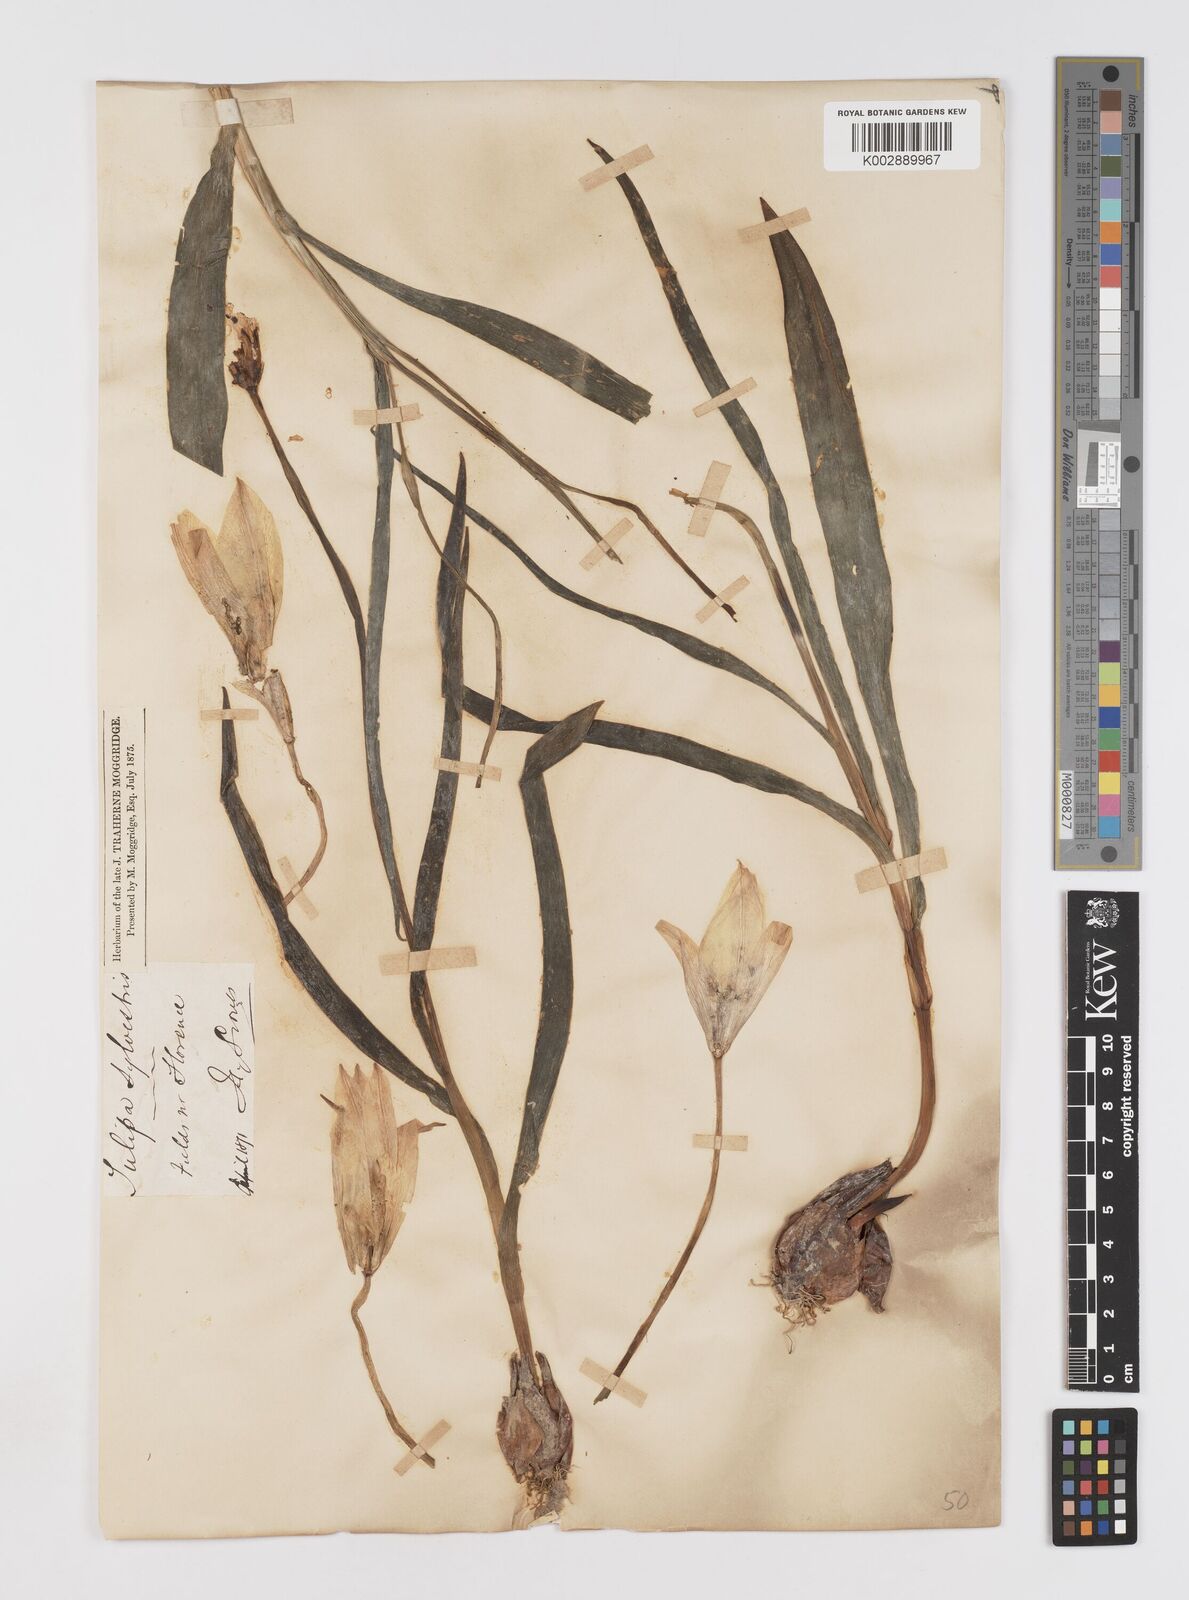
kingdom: Plantae
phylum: Tracheophyta
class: Liliopsida
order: Liliales
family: Liliaceae
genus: Tulipa
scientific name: Tulipa sylvestris
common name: Wild tulip
